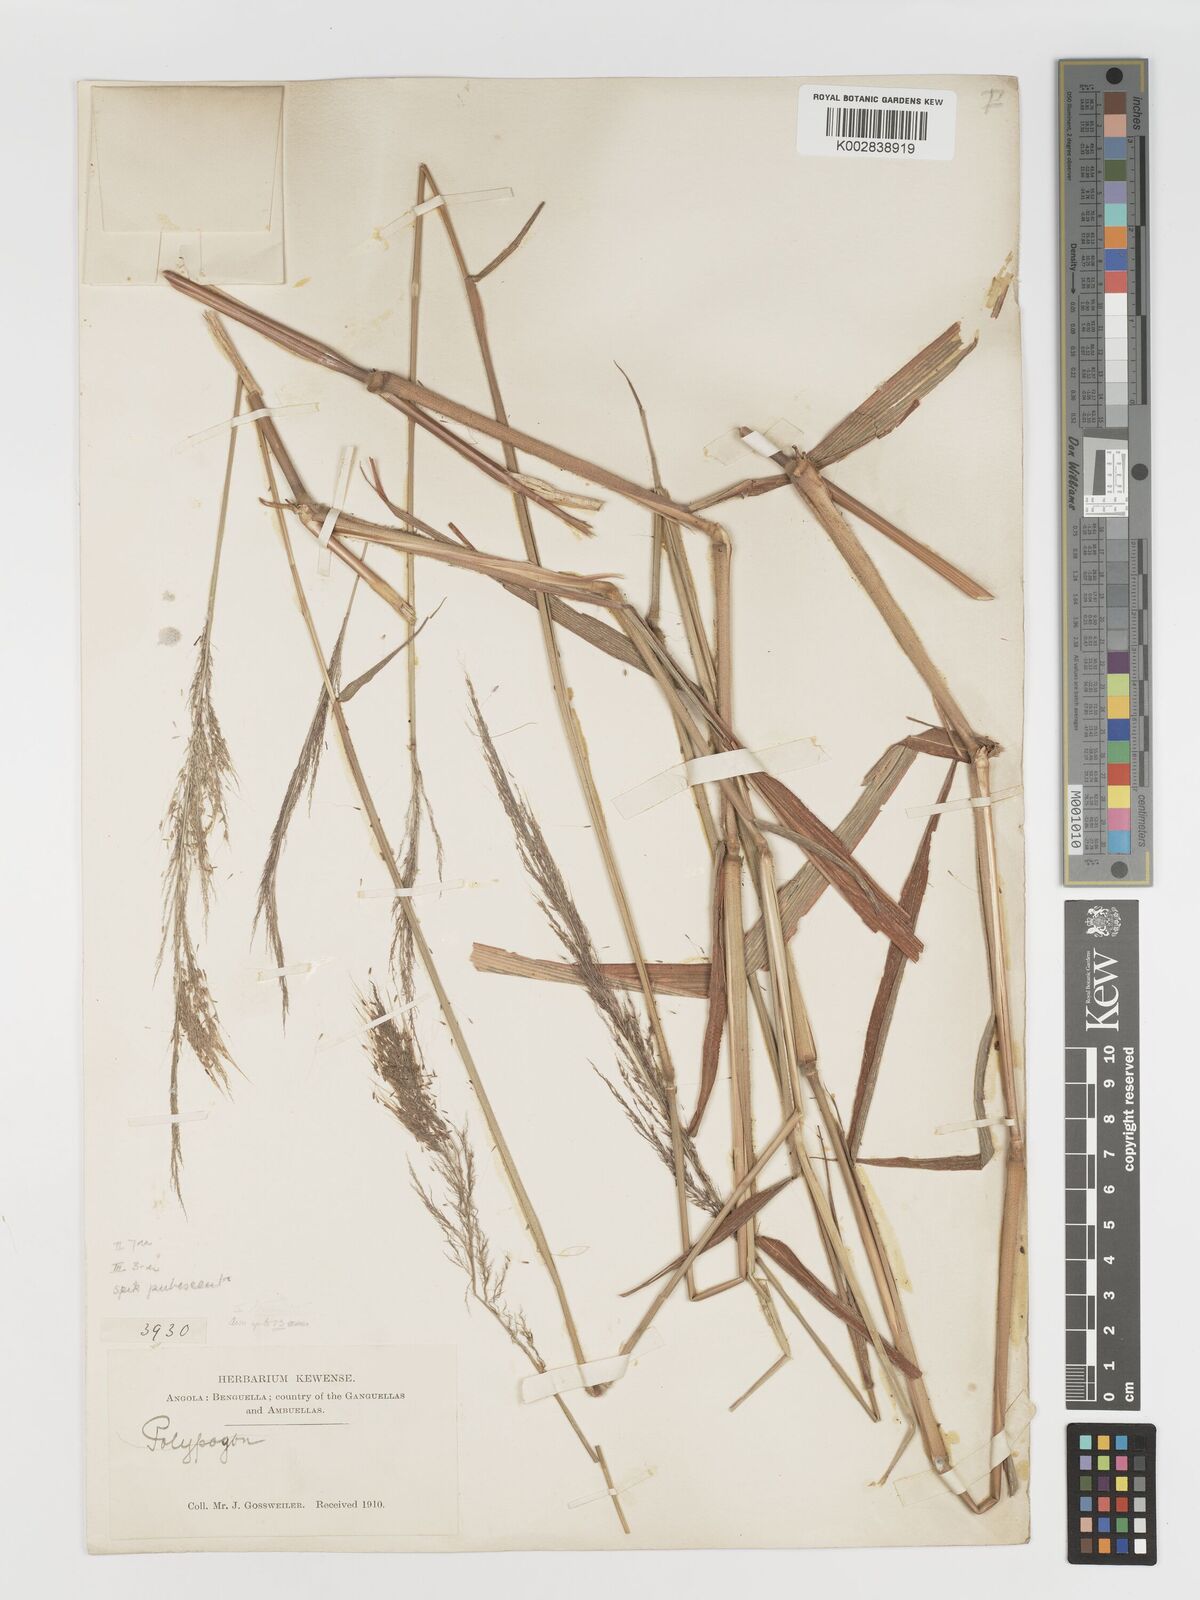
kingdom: Plantae
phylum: Tracheophyta
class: Liliopsida
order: Poales
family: Poaceae
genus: Melinis
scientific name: Melinis macrochaeta
